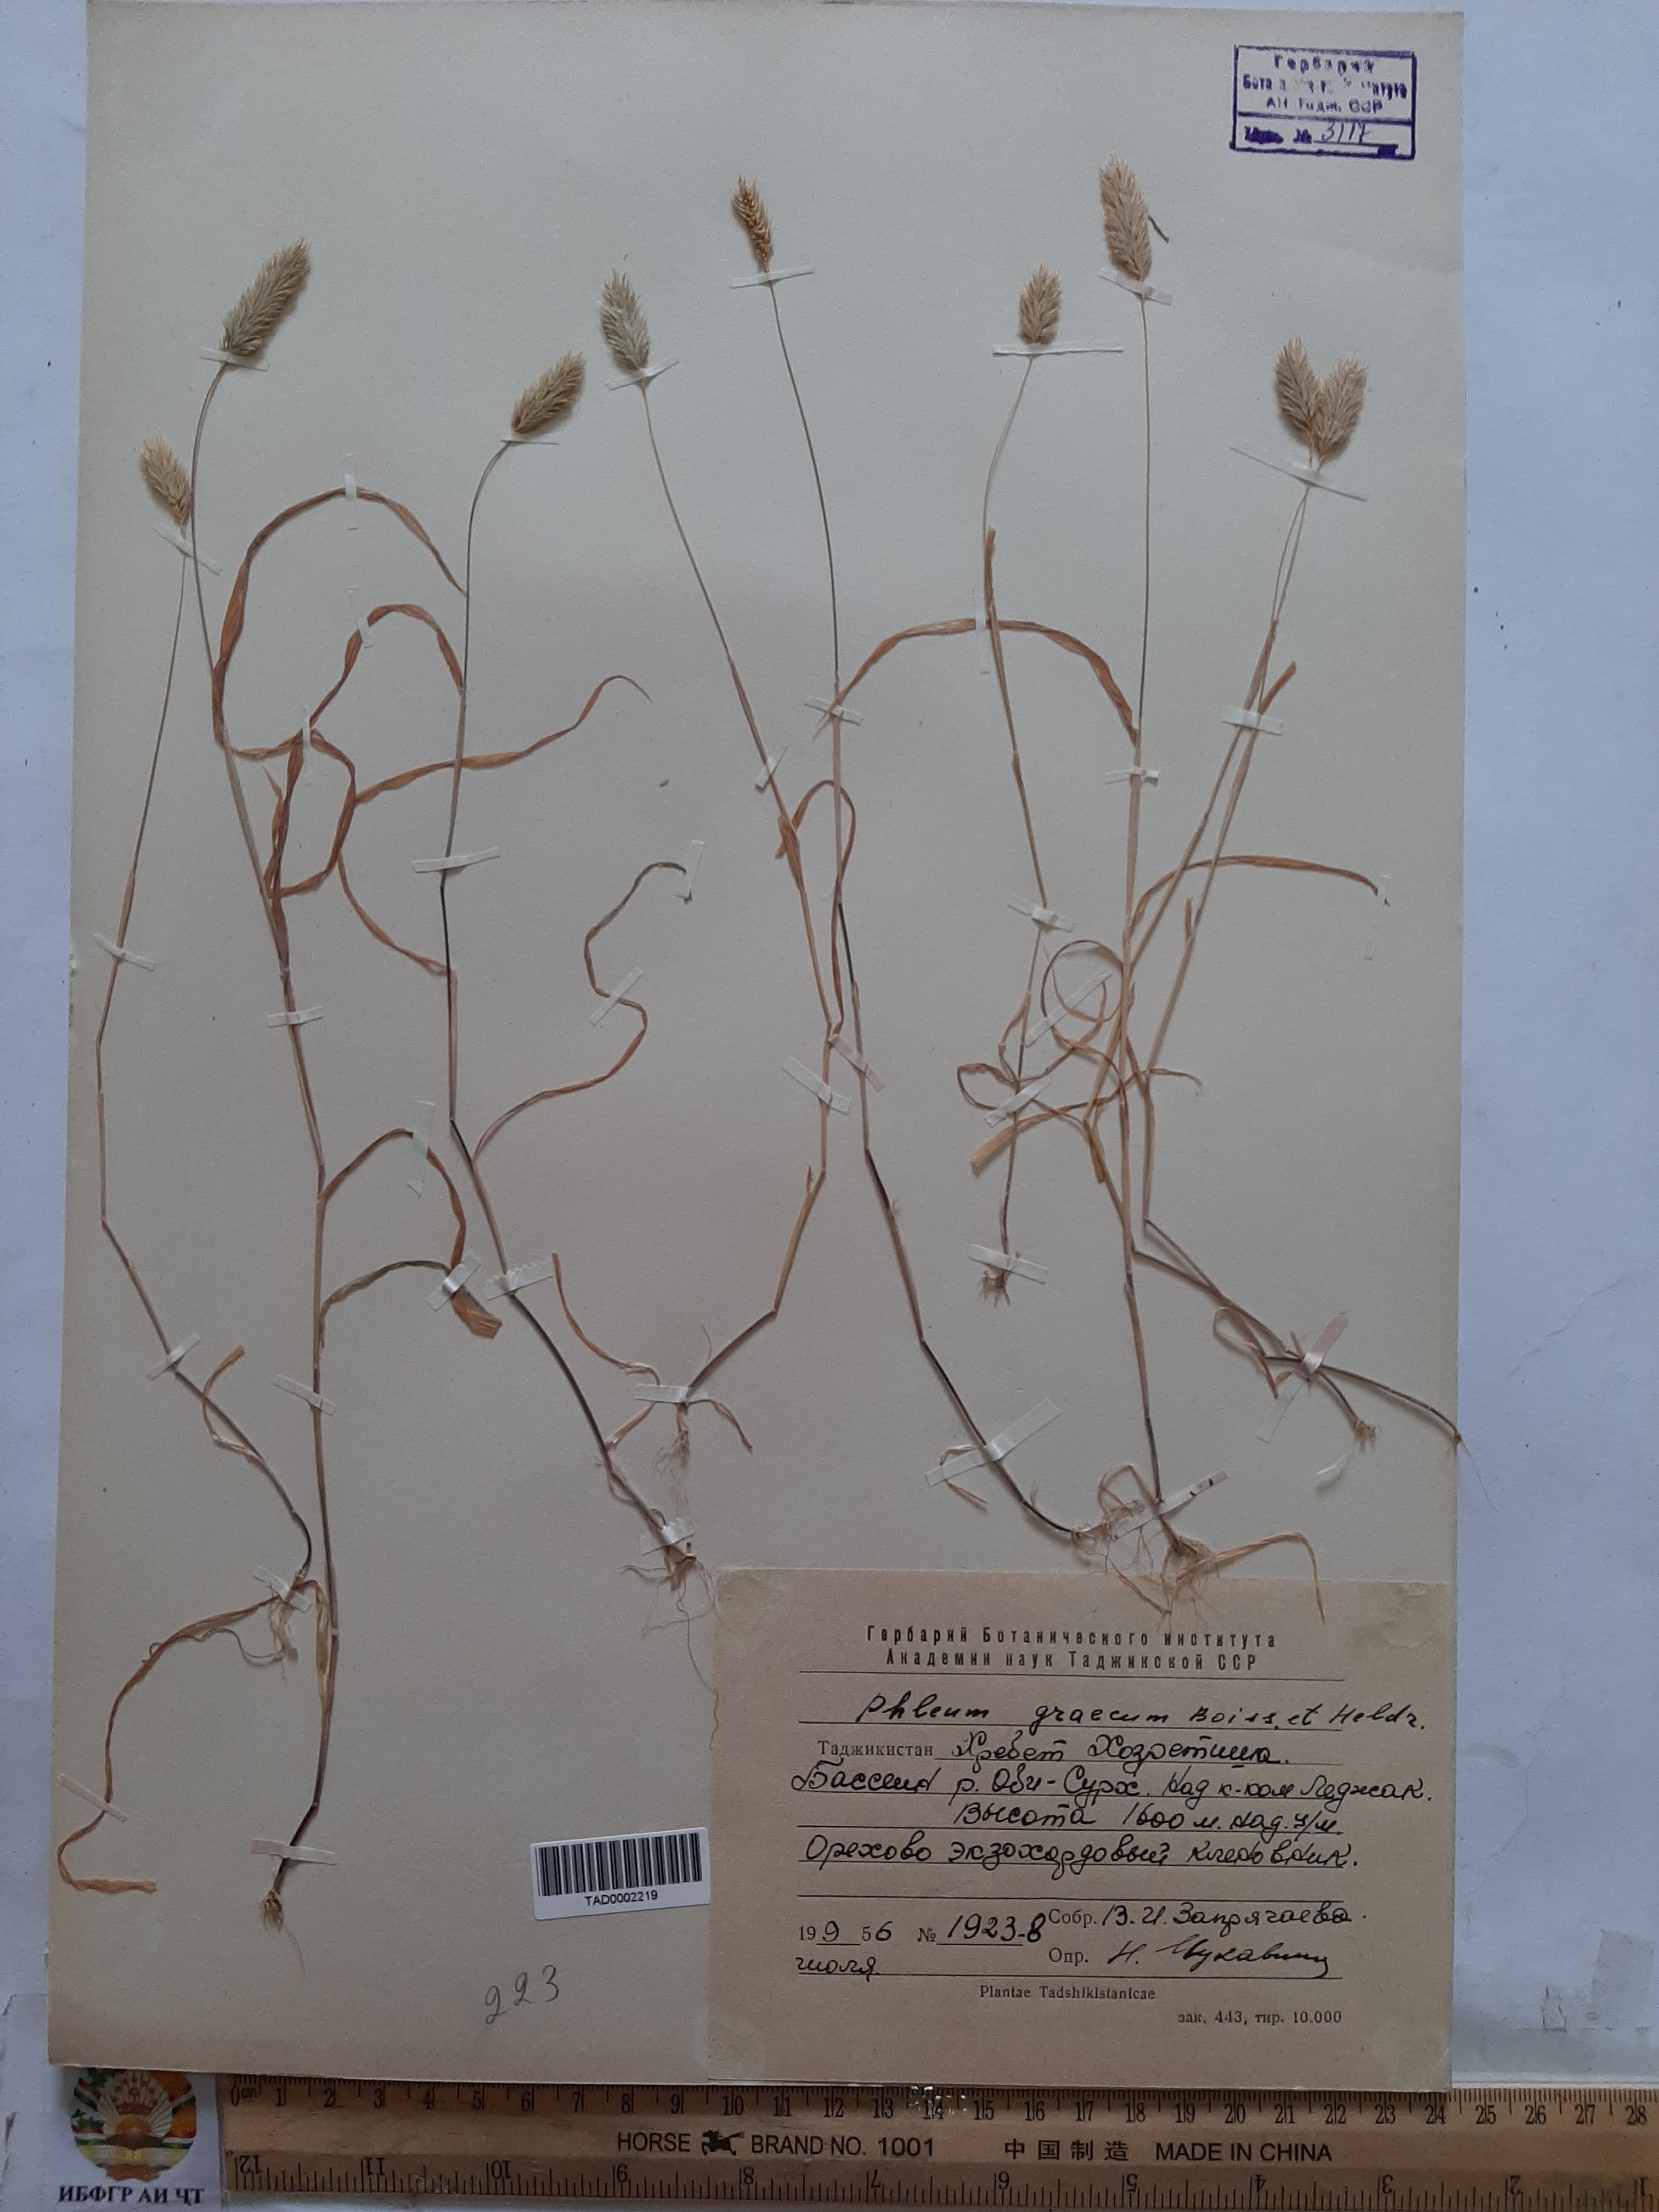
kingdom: Plantae
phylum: Tracheophyta
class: Liliopsida
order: Poales
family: Poaceae
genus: Phleum
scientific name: Phleum exaratum
